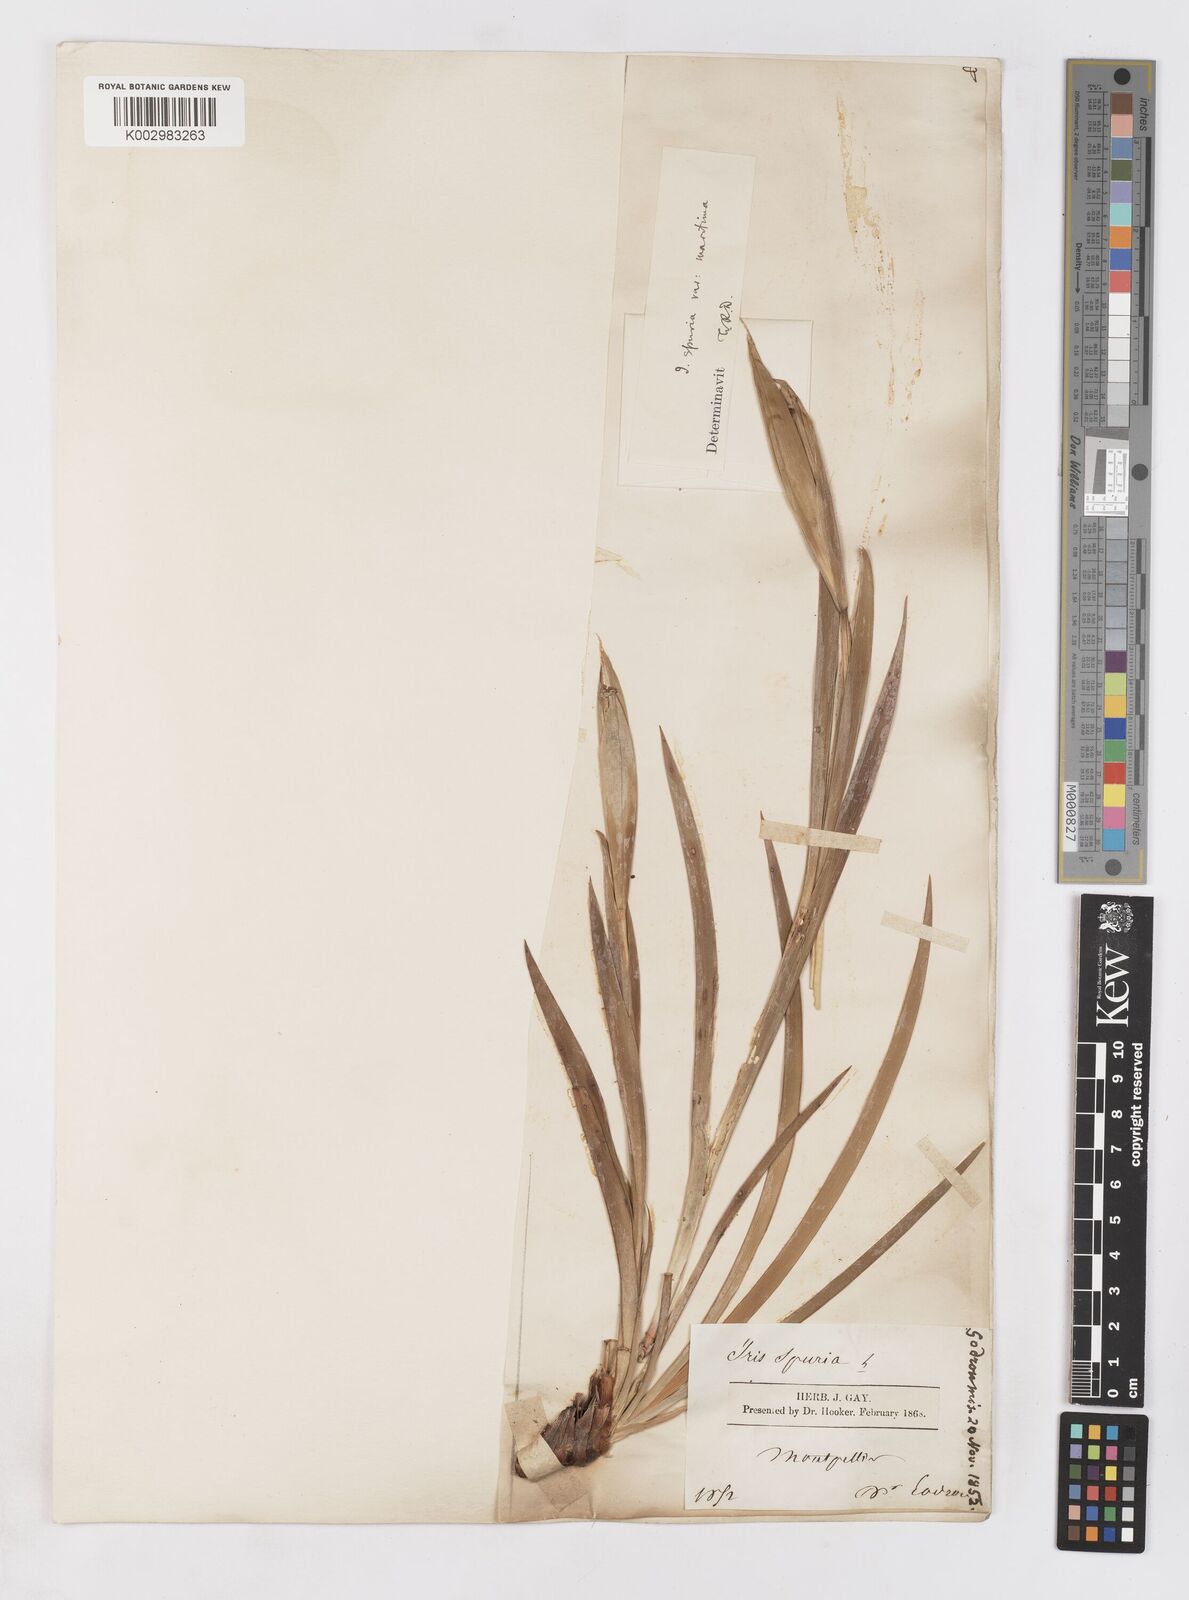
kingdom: Plantae
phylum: Tracheophyta
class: Liliopsida
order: Asparagales
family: Iridaceae
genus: Iris
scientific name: Iris spuria
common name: Blue iris
